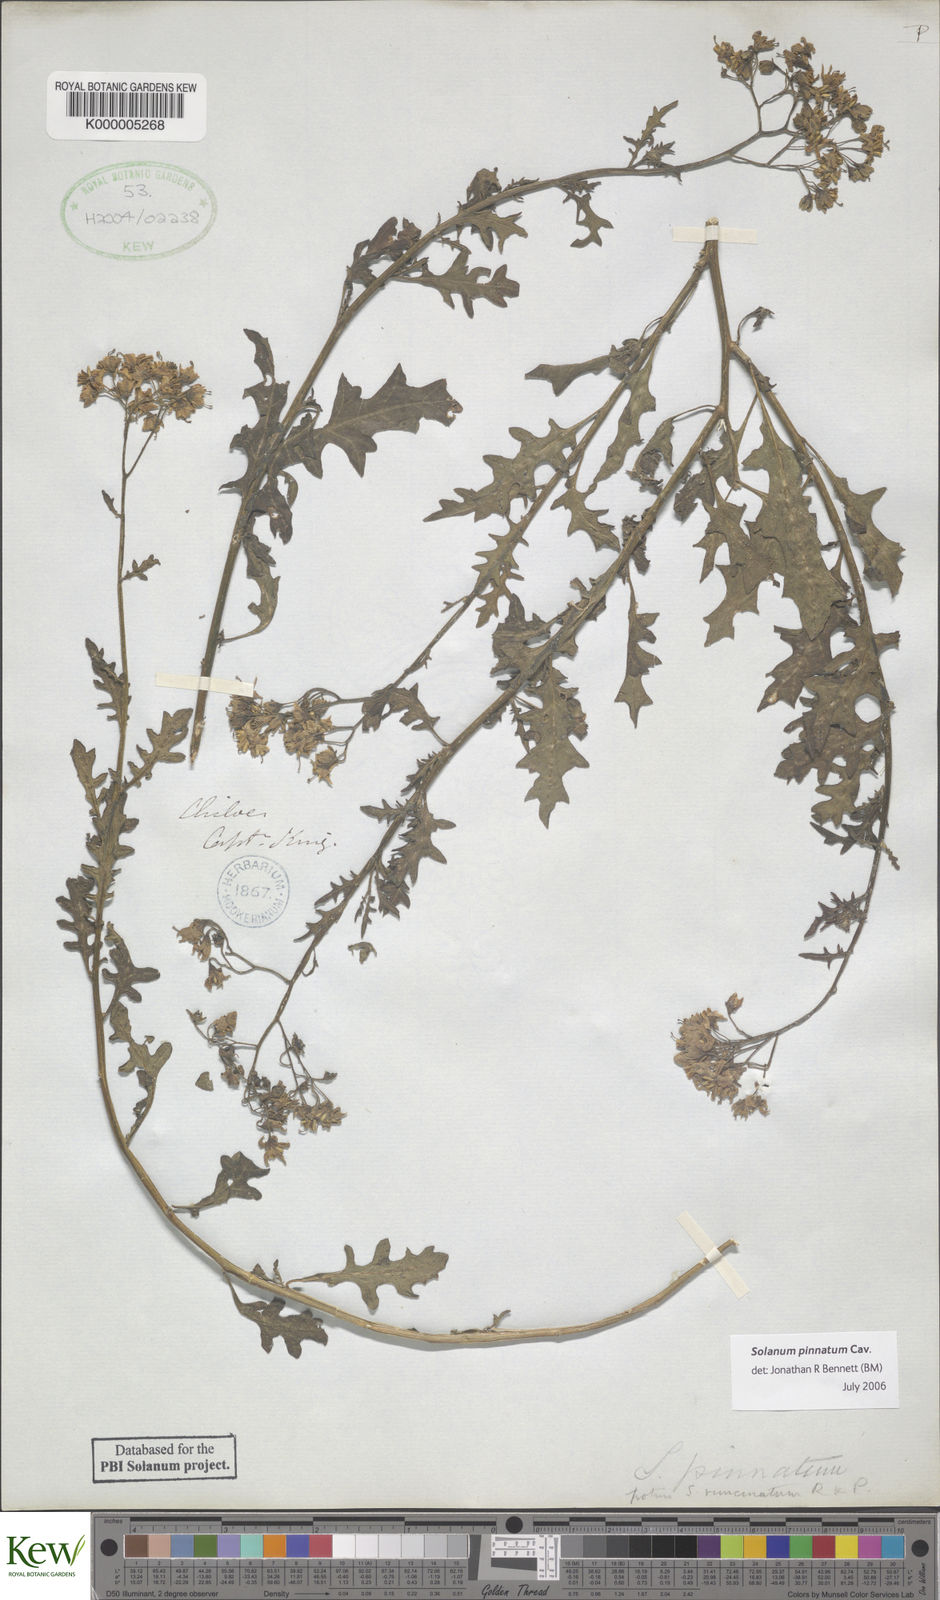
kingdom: Plantae
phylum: Tracheophyta
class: Magnoliopsida
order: Solanales
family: Solanaceae
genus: Solanum
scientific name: Solanum pinnatum
